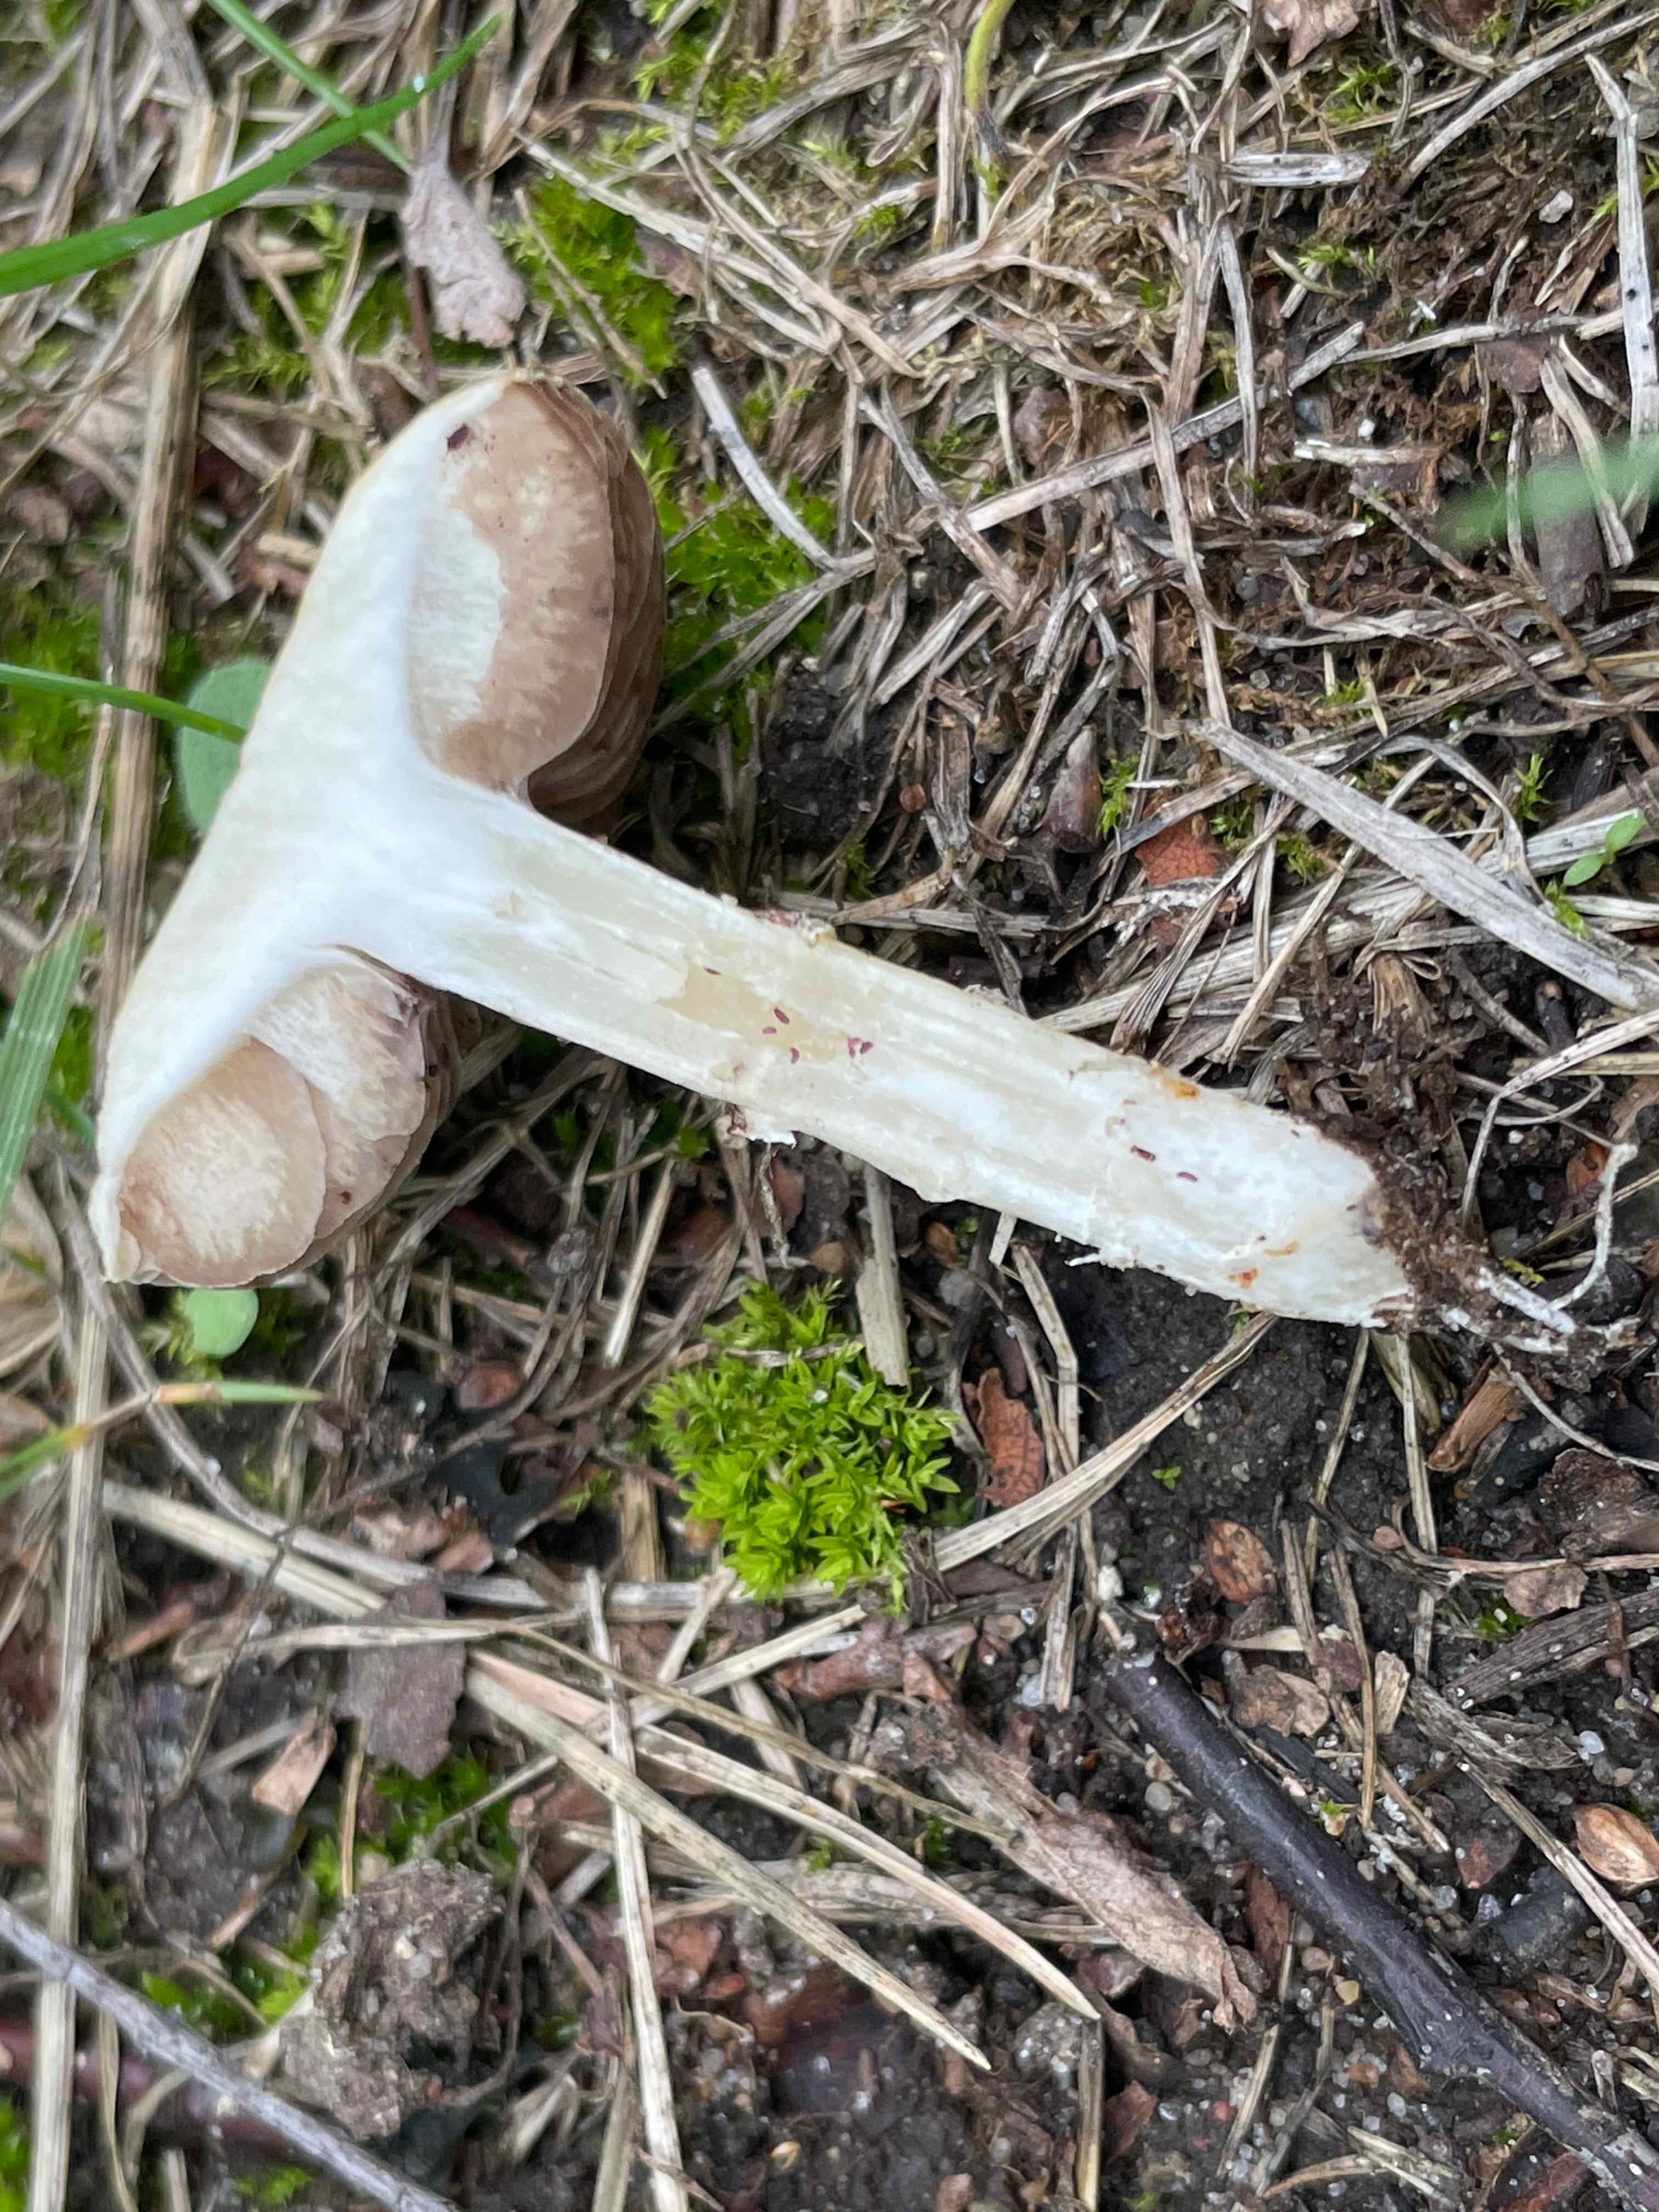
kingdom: Fungi
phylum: Basidiomycota
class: Agaricomycetes
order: Agaricales
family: Hymenogastraceae
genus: Psilocybe
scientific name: Psilocybe coronilla
